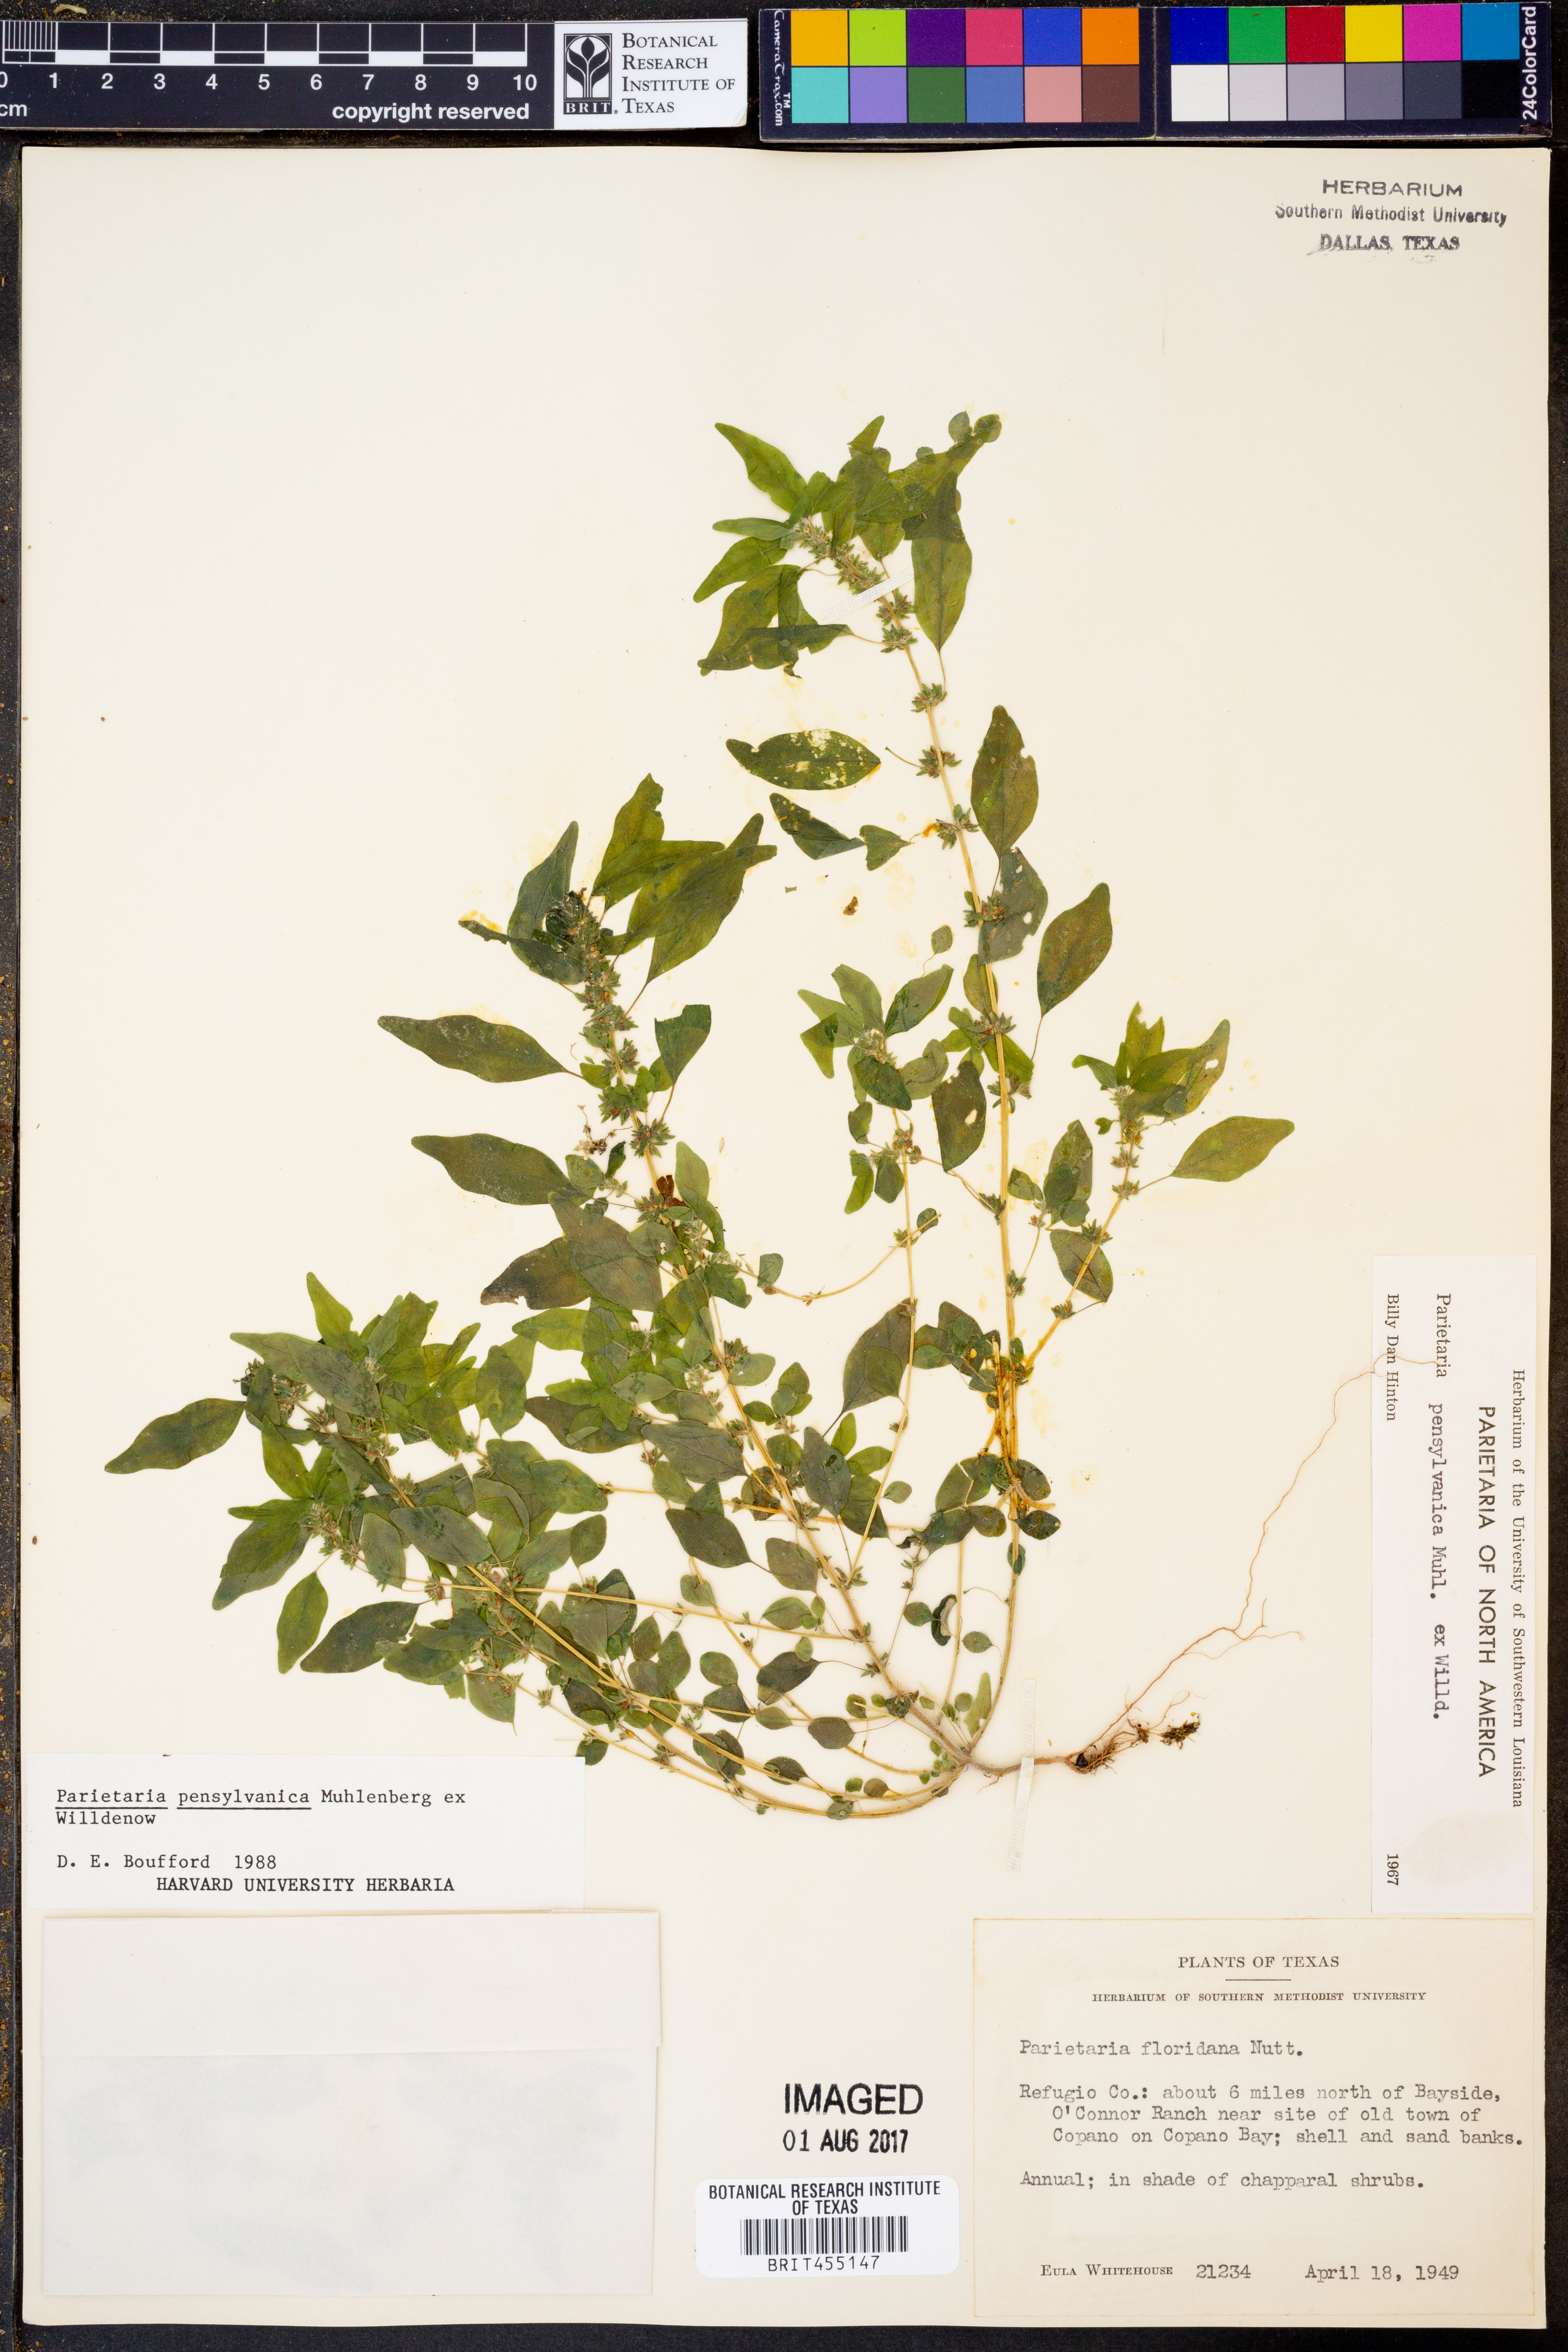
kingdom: Plantae
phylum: Tracheophyta
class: Magnoliopsida
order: Rosales
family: Urticaceae
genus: Parietaria
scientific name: Parietaria pensylvanica
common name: Pennsylvania pellitory
